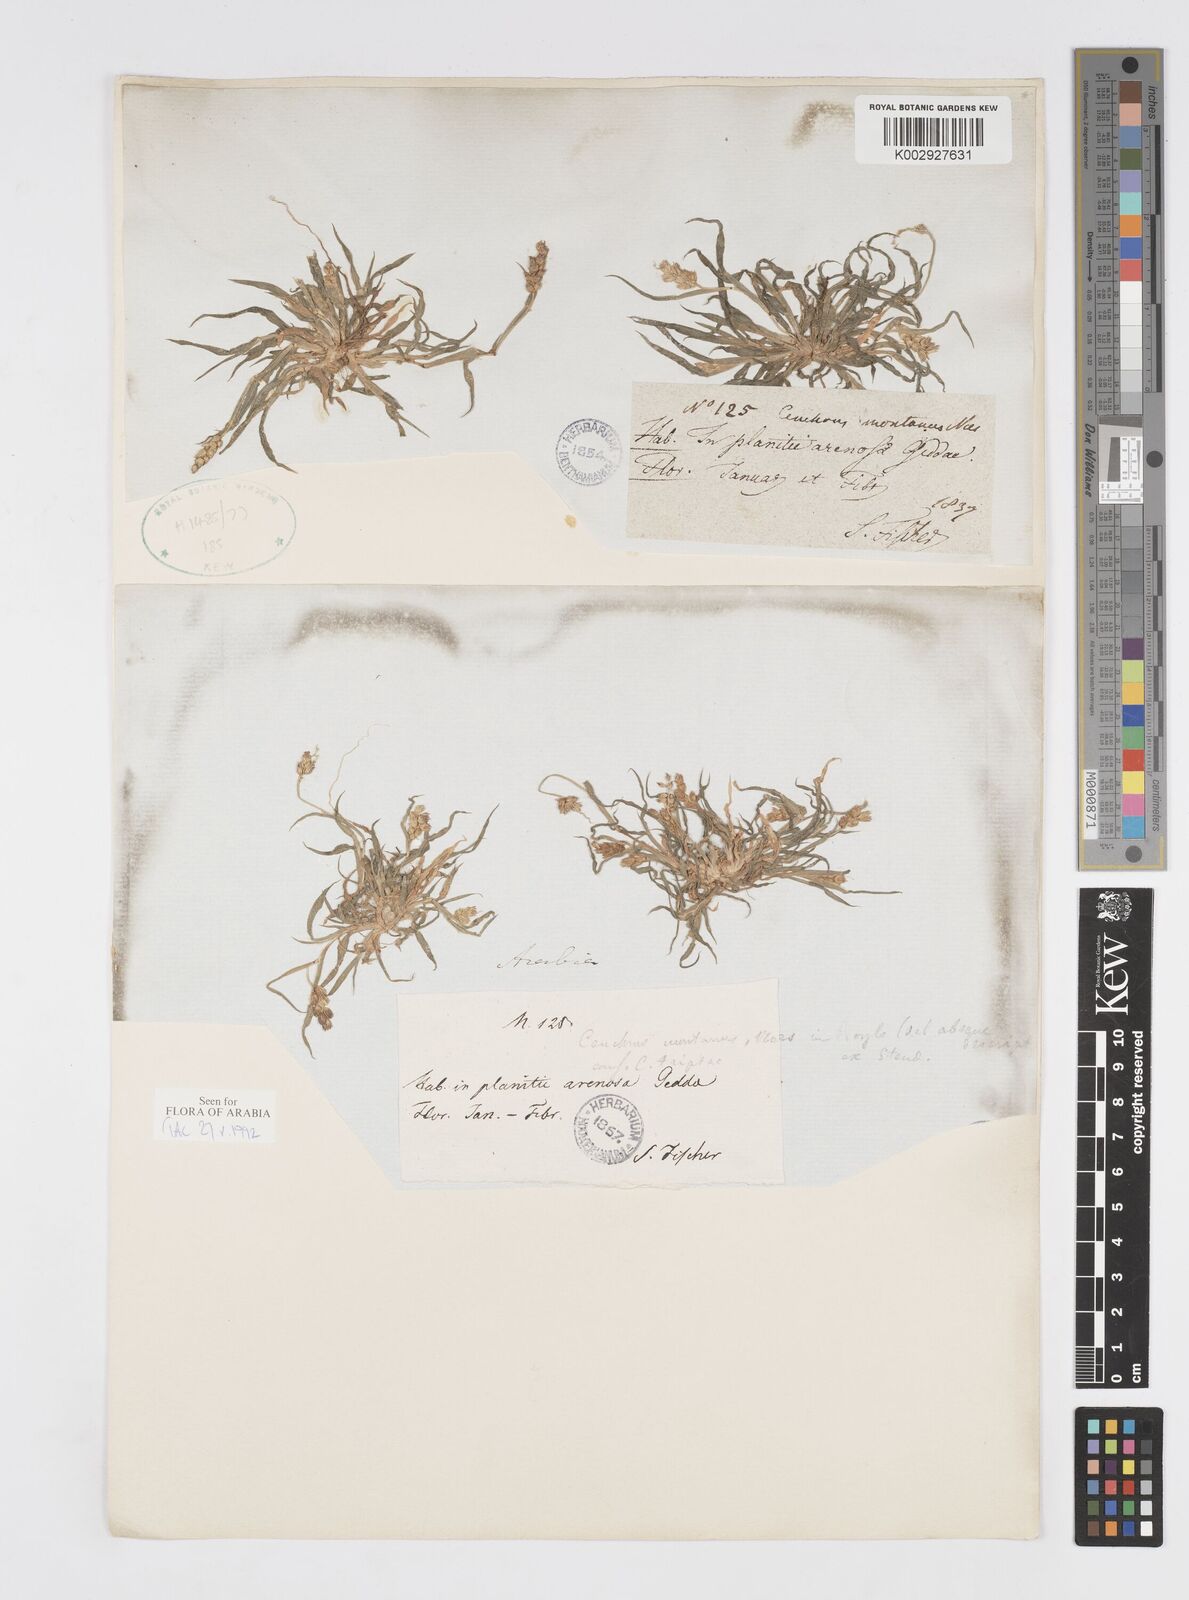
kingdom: Plantae
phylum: Tracheophyta
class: Liliopsida
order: Poales
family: Poaceae
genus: Cenchrus
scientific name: Cenchrus setigerus
